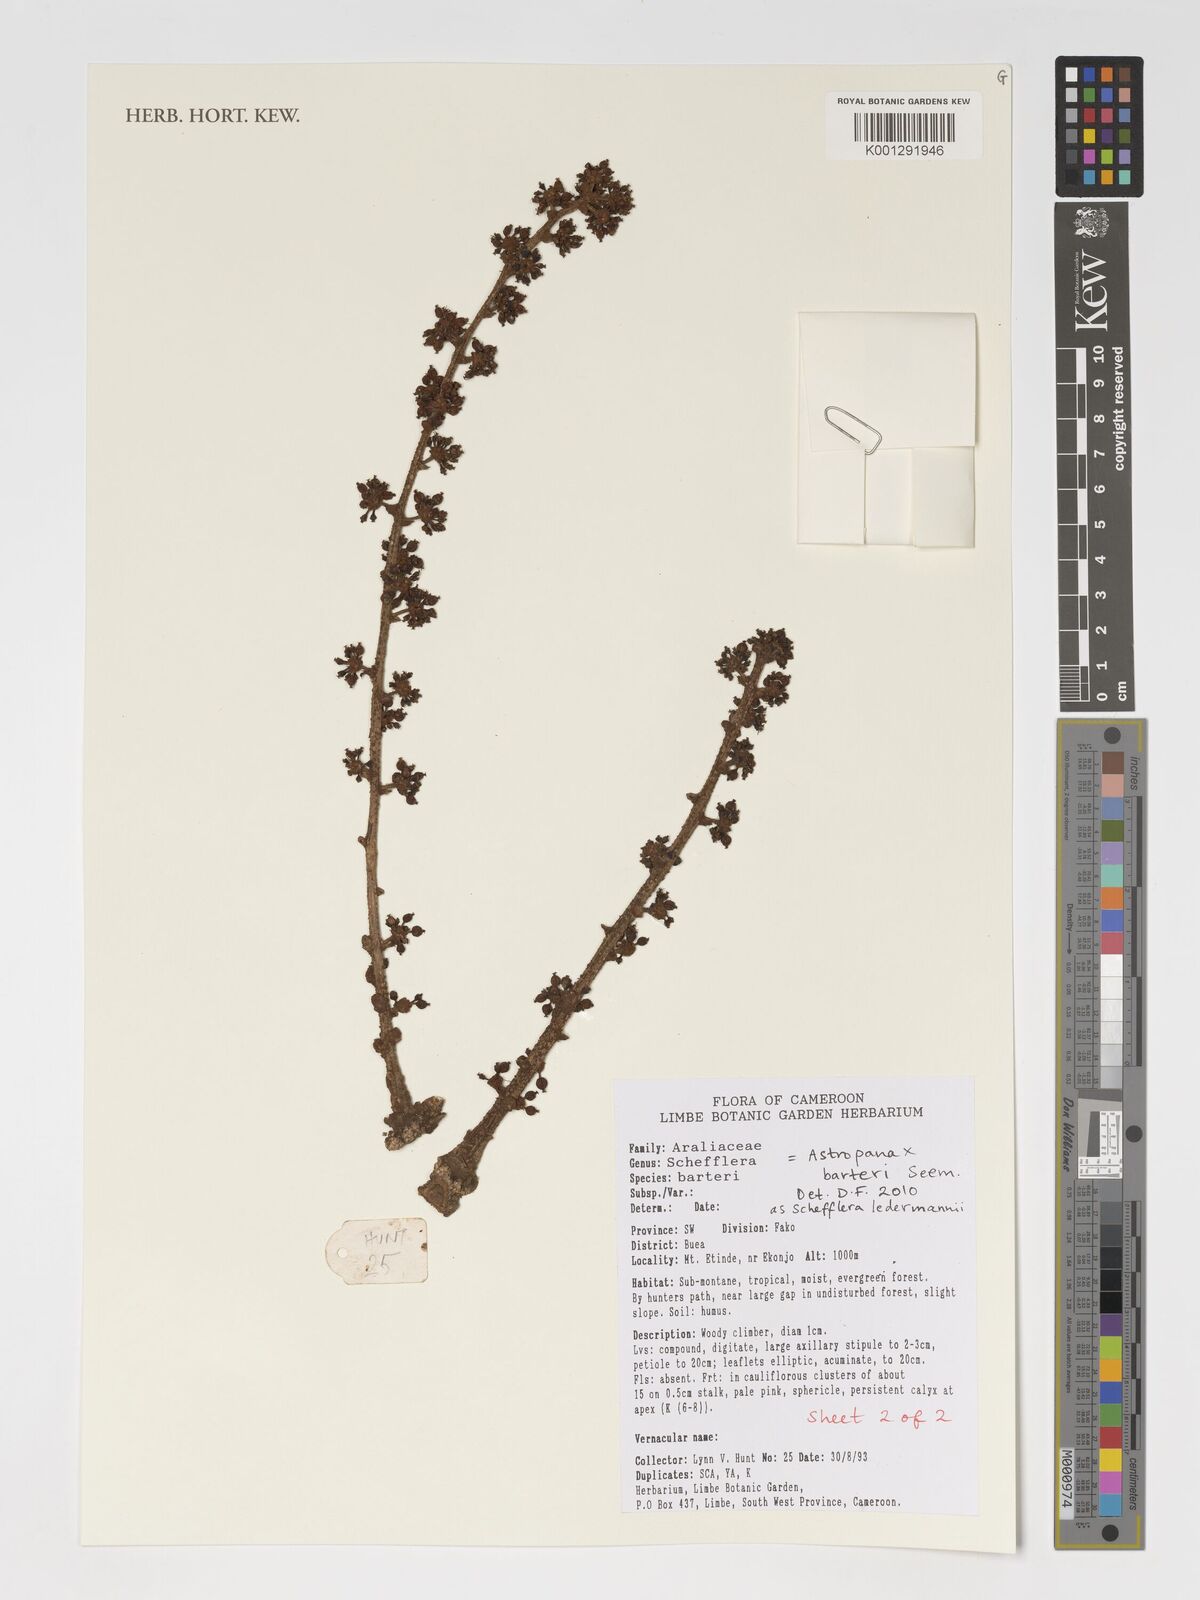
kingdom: Plantae
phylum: Tracheophyta
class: Magnoliopsida
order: Apiales
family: Araliaceae
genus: Astropanax
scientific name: Astropanax barteri
